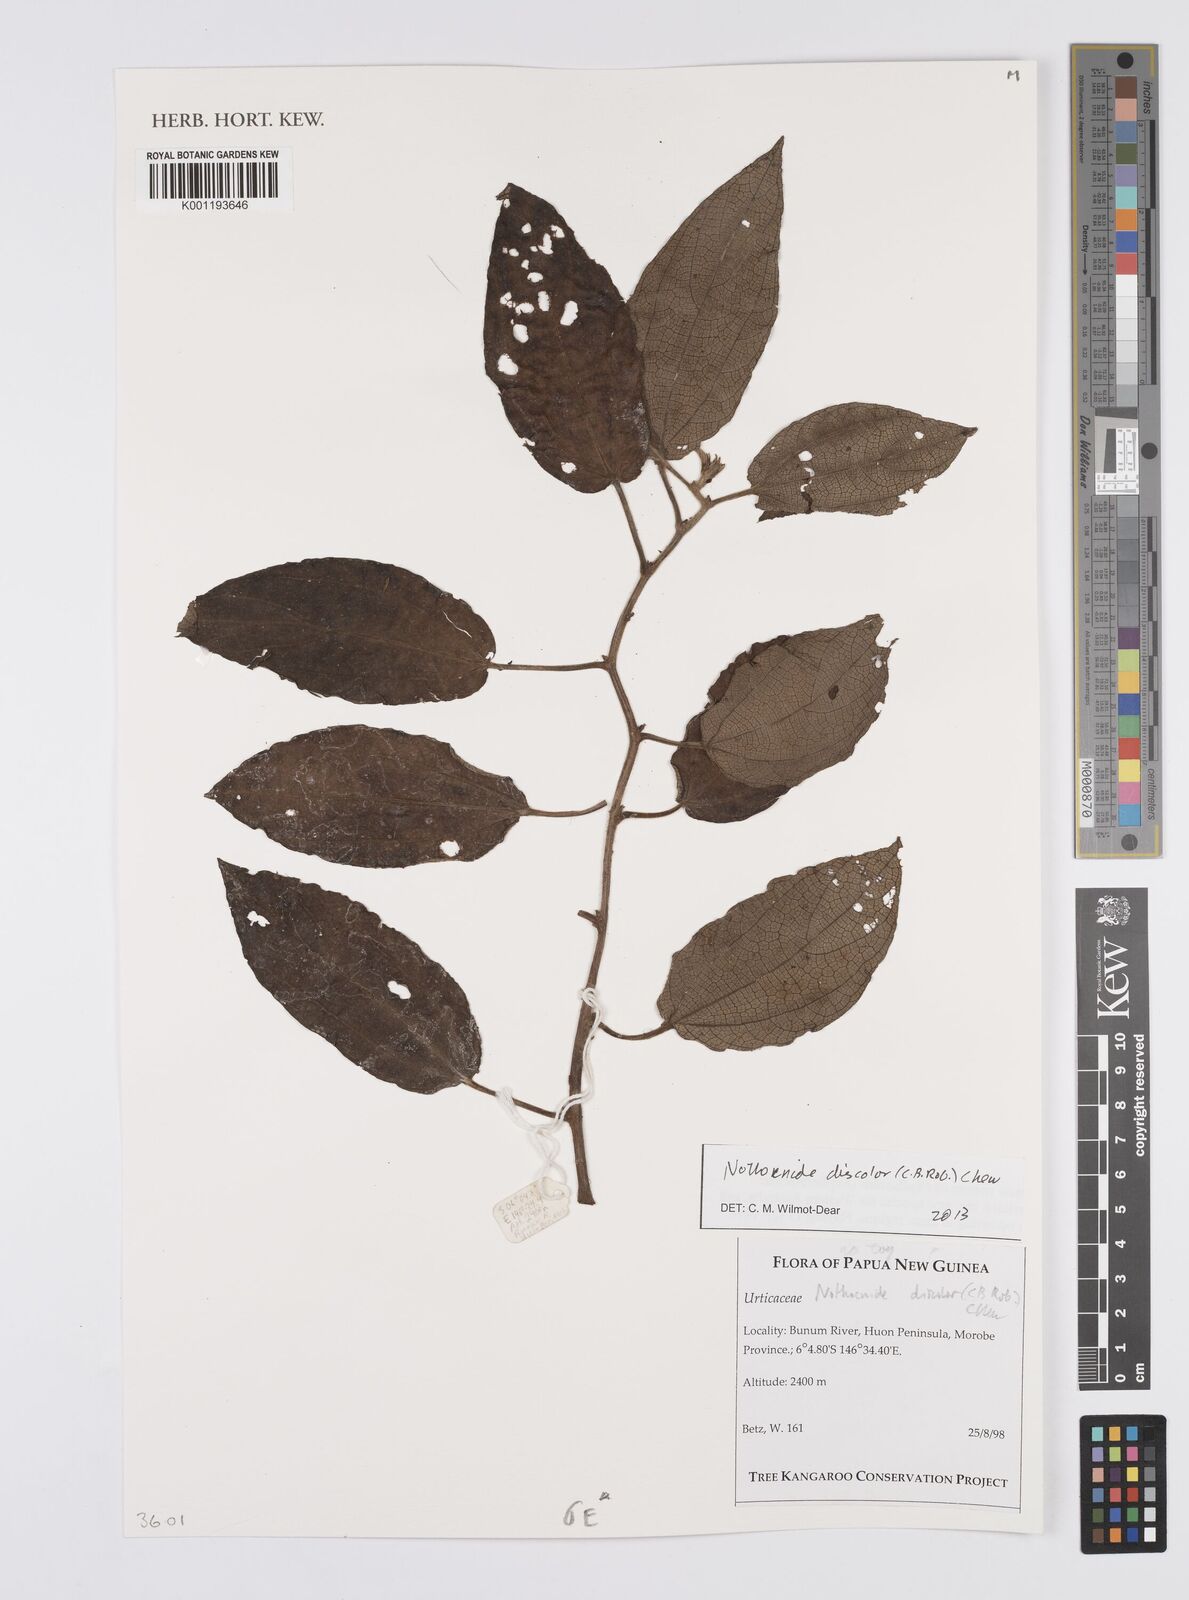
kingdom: Plantae
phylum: Tracheophyta
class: Magnoliopsida
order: Rosales
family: Urticaceae
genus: Nothocnide
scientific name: Nothocnide discolor
